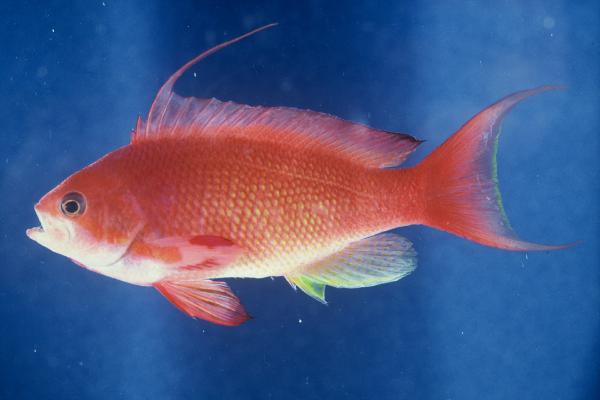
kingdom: Animalia
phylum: Chordata
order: Perciformes
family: Serranidae
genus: Pseudanthias
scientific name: Pseudanthias squamipinnis
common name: Scalefin anthias
